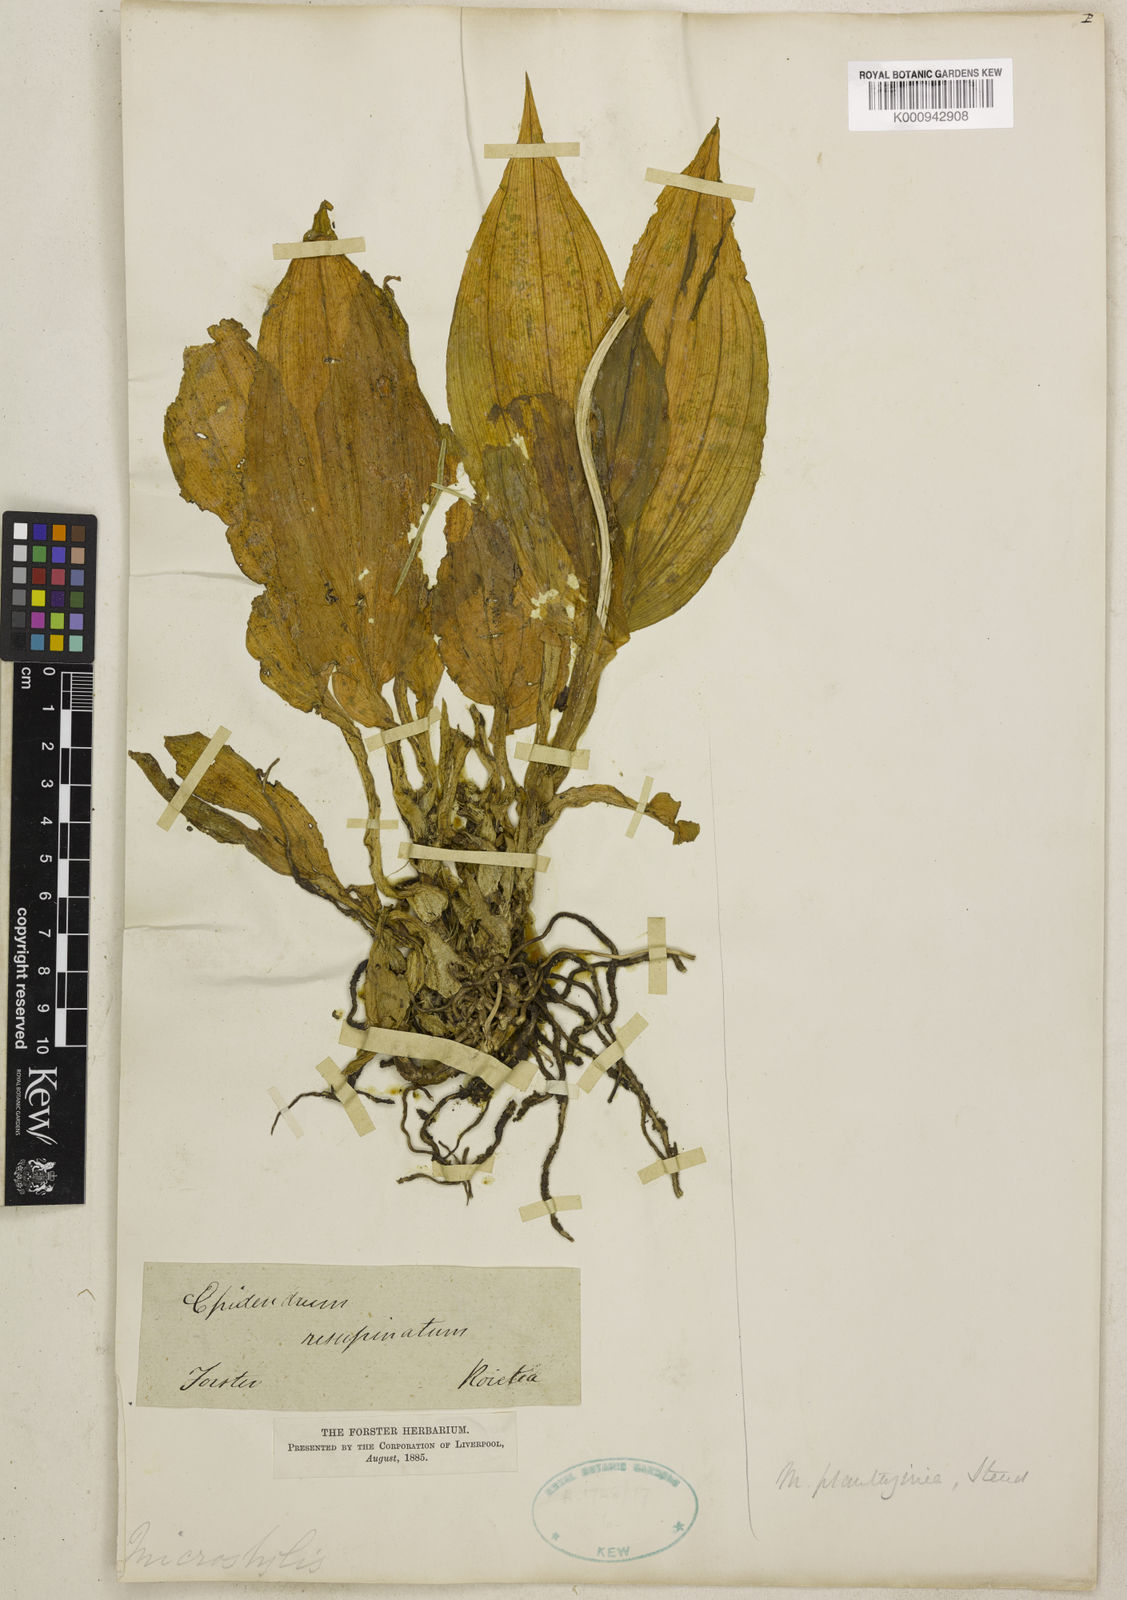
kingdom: Plantae
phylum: Tracheophyta
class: Liliopsida
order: Asparagales
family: Orchidaceae
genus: Crepidium
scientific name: Crepidium resupinatum
